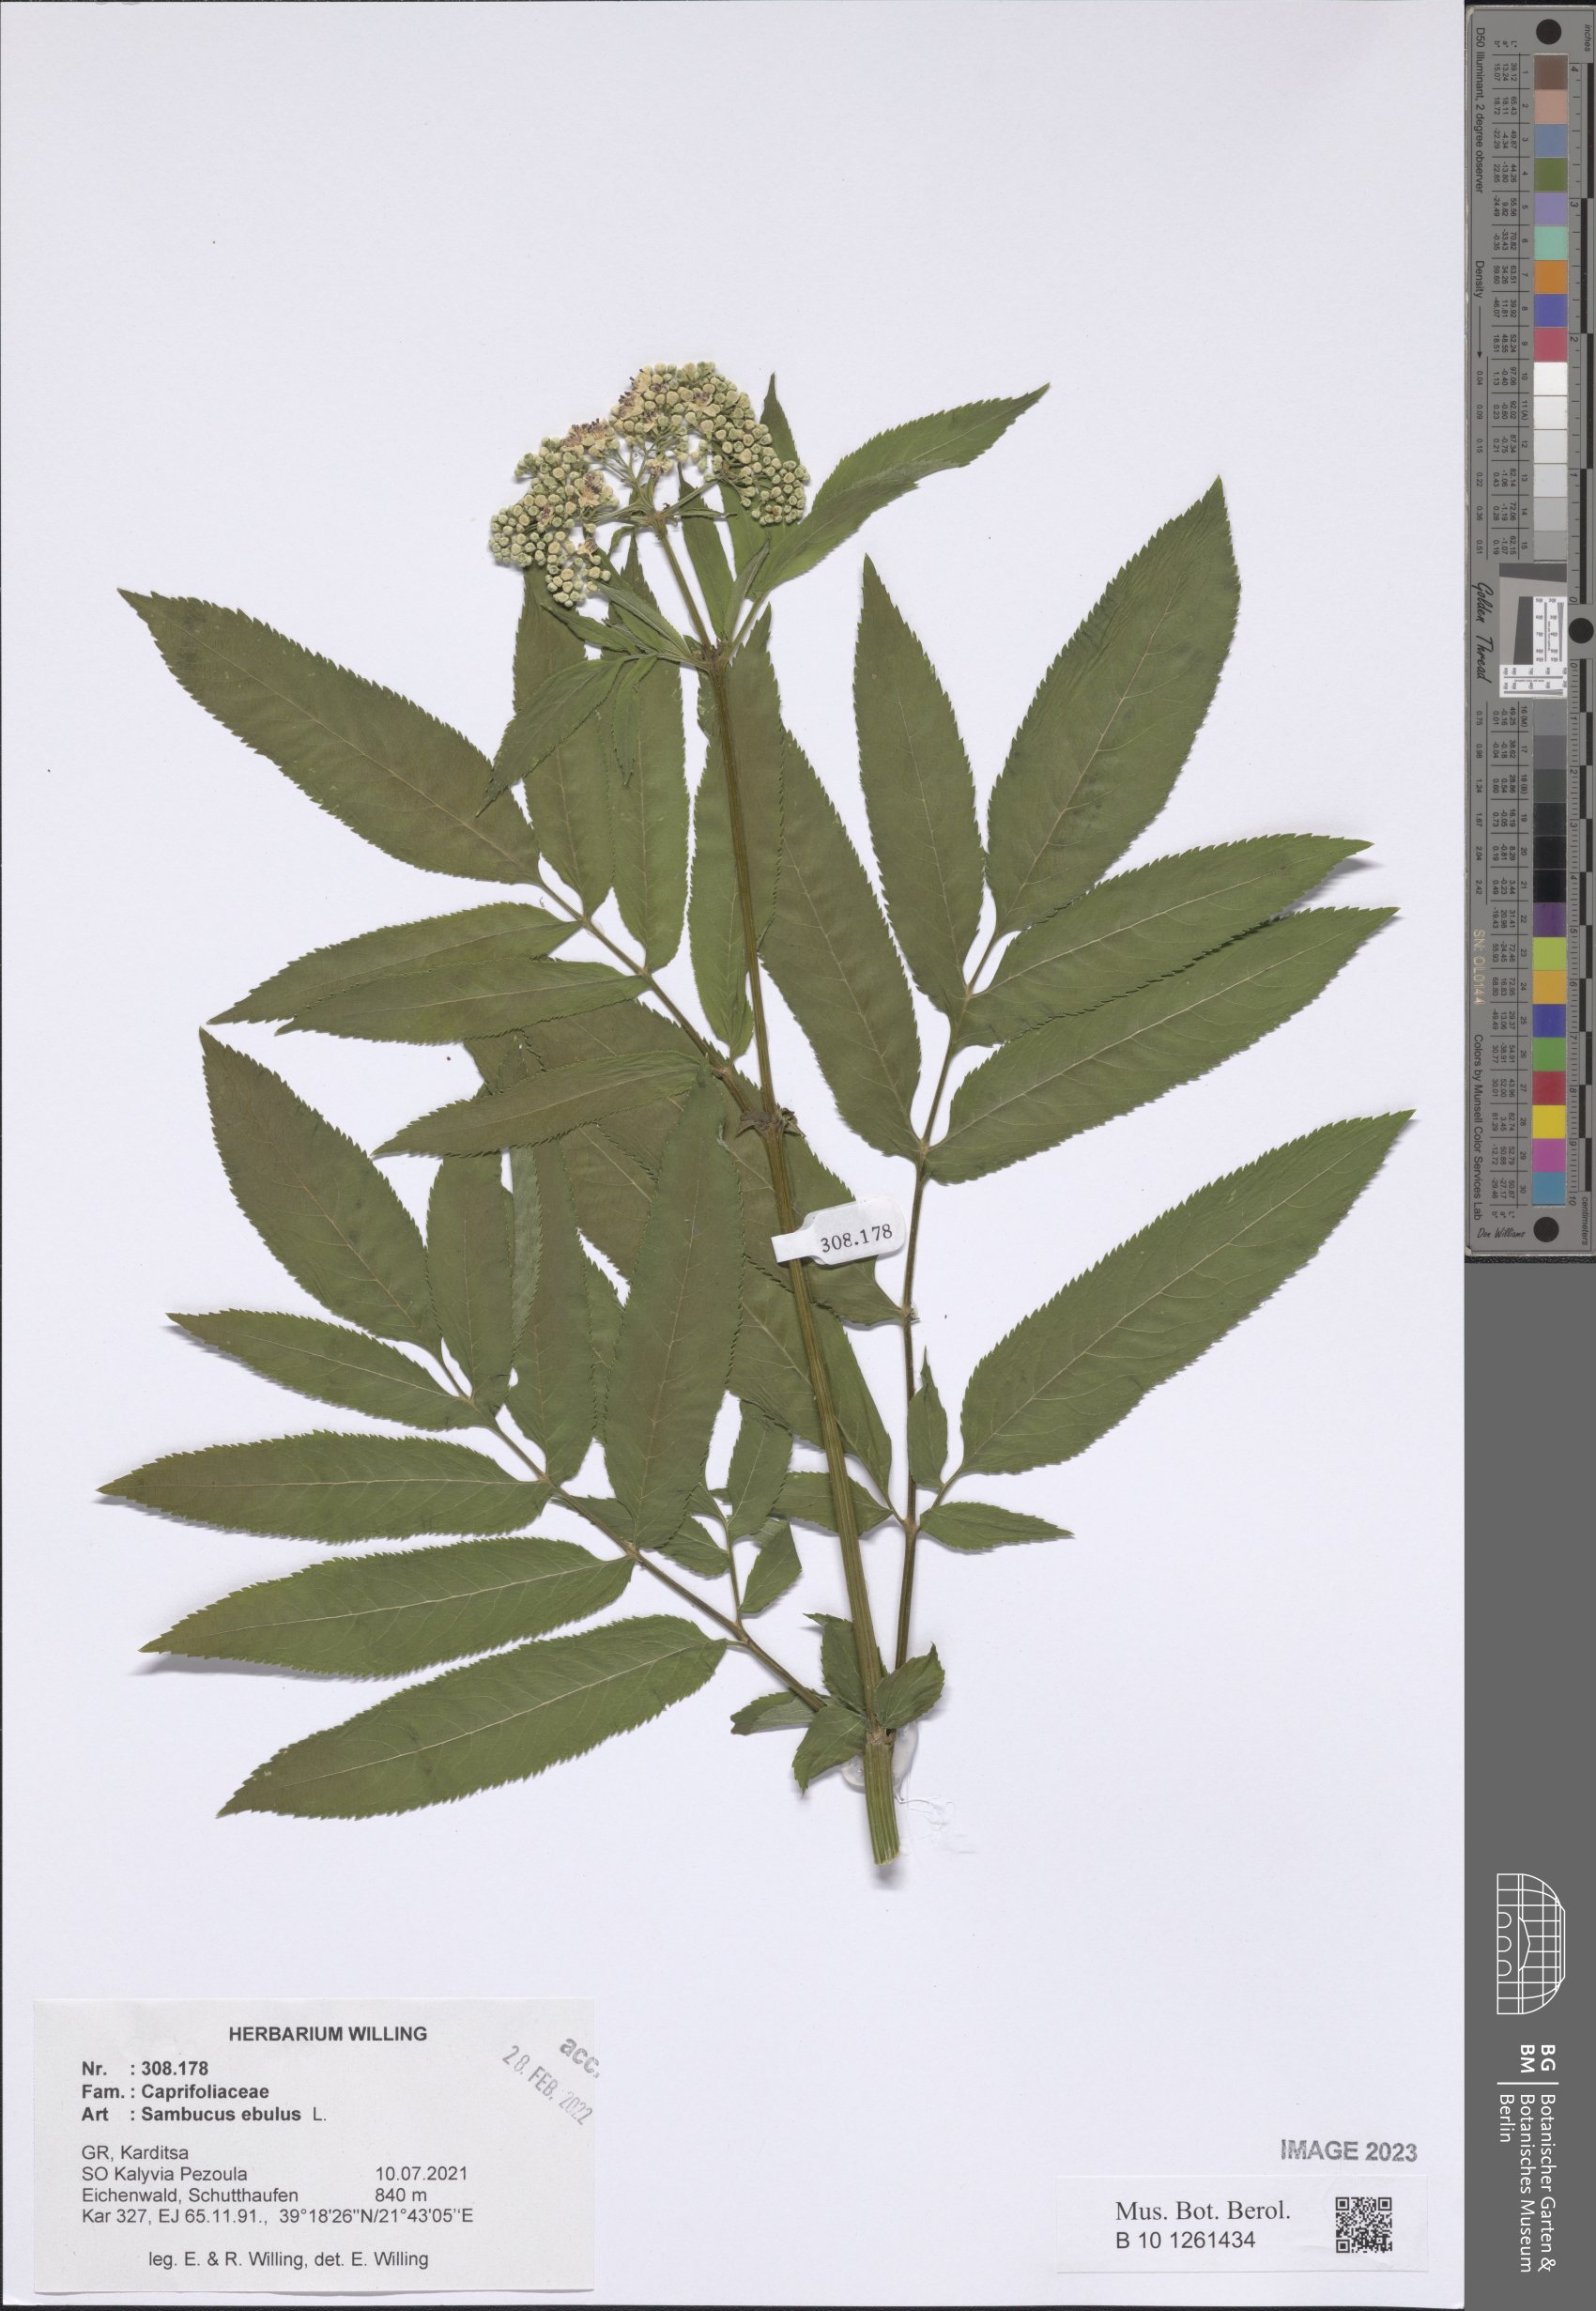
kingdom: Plantae
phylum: Tracheophyta
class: Magnoliopsida
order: Dipsacales
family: Viburnaceae
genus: Sambucus
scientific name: Sambucus ebulus
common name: Dwarf elder
